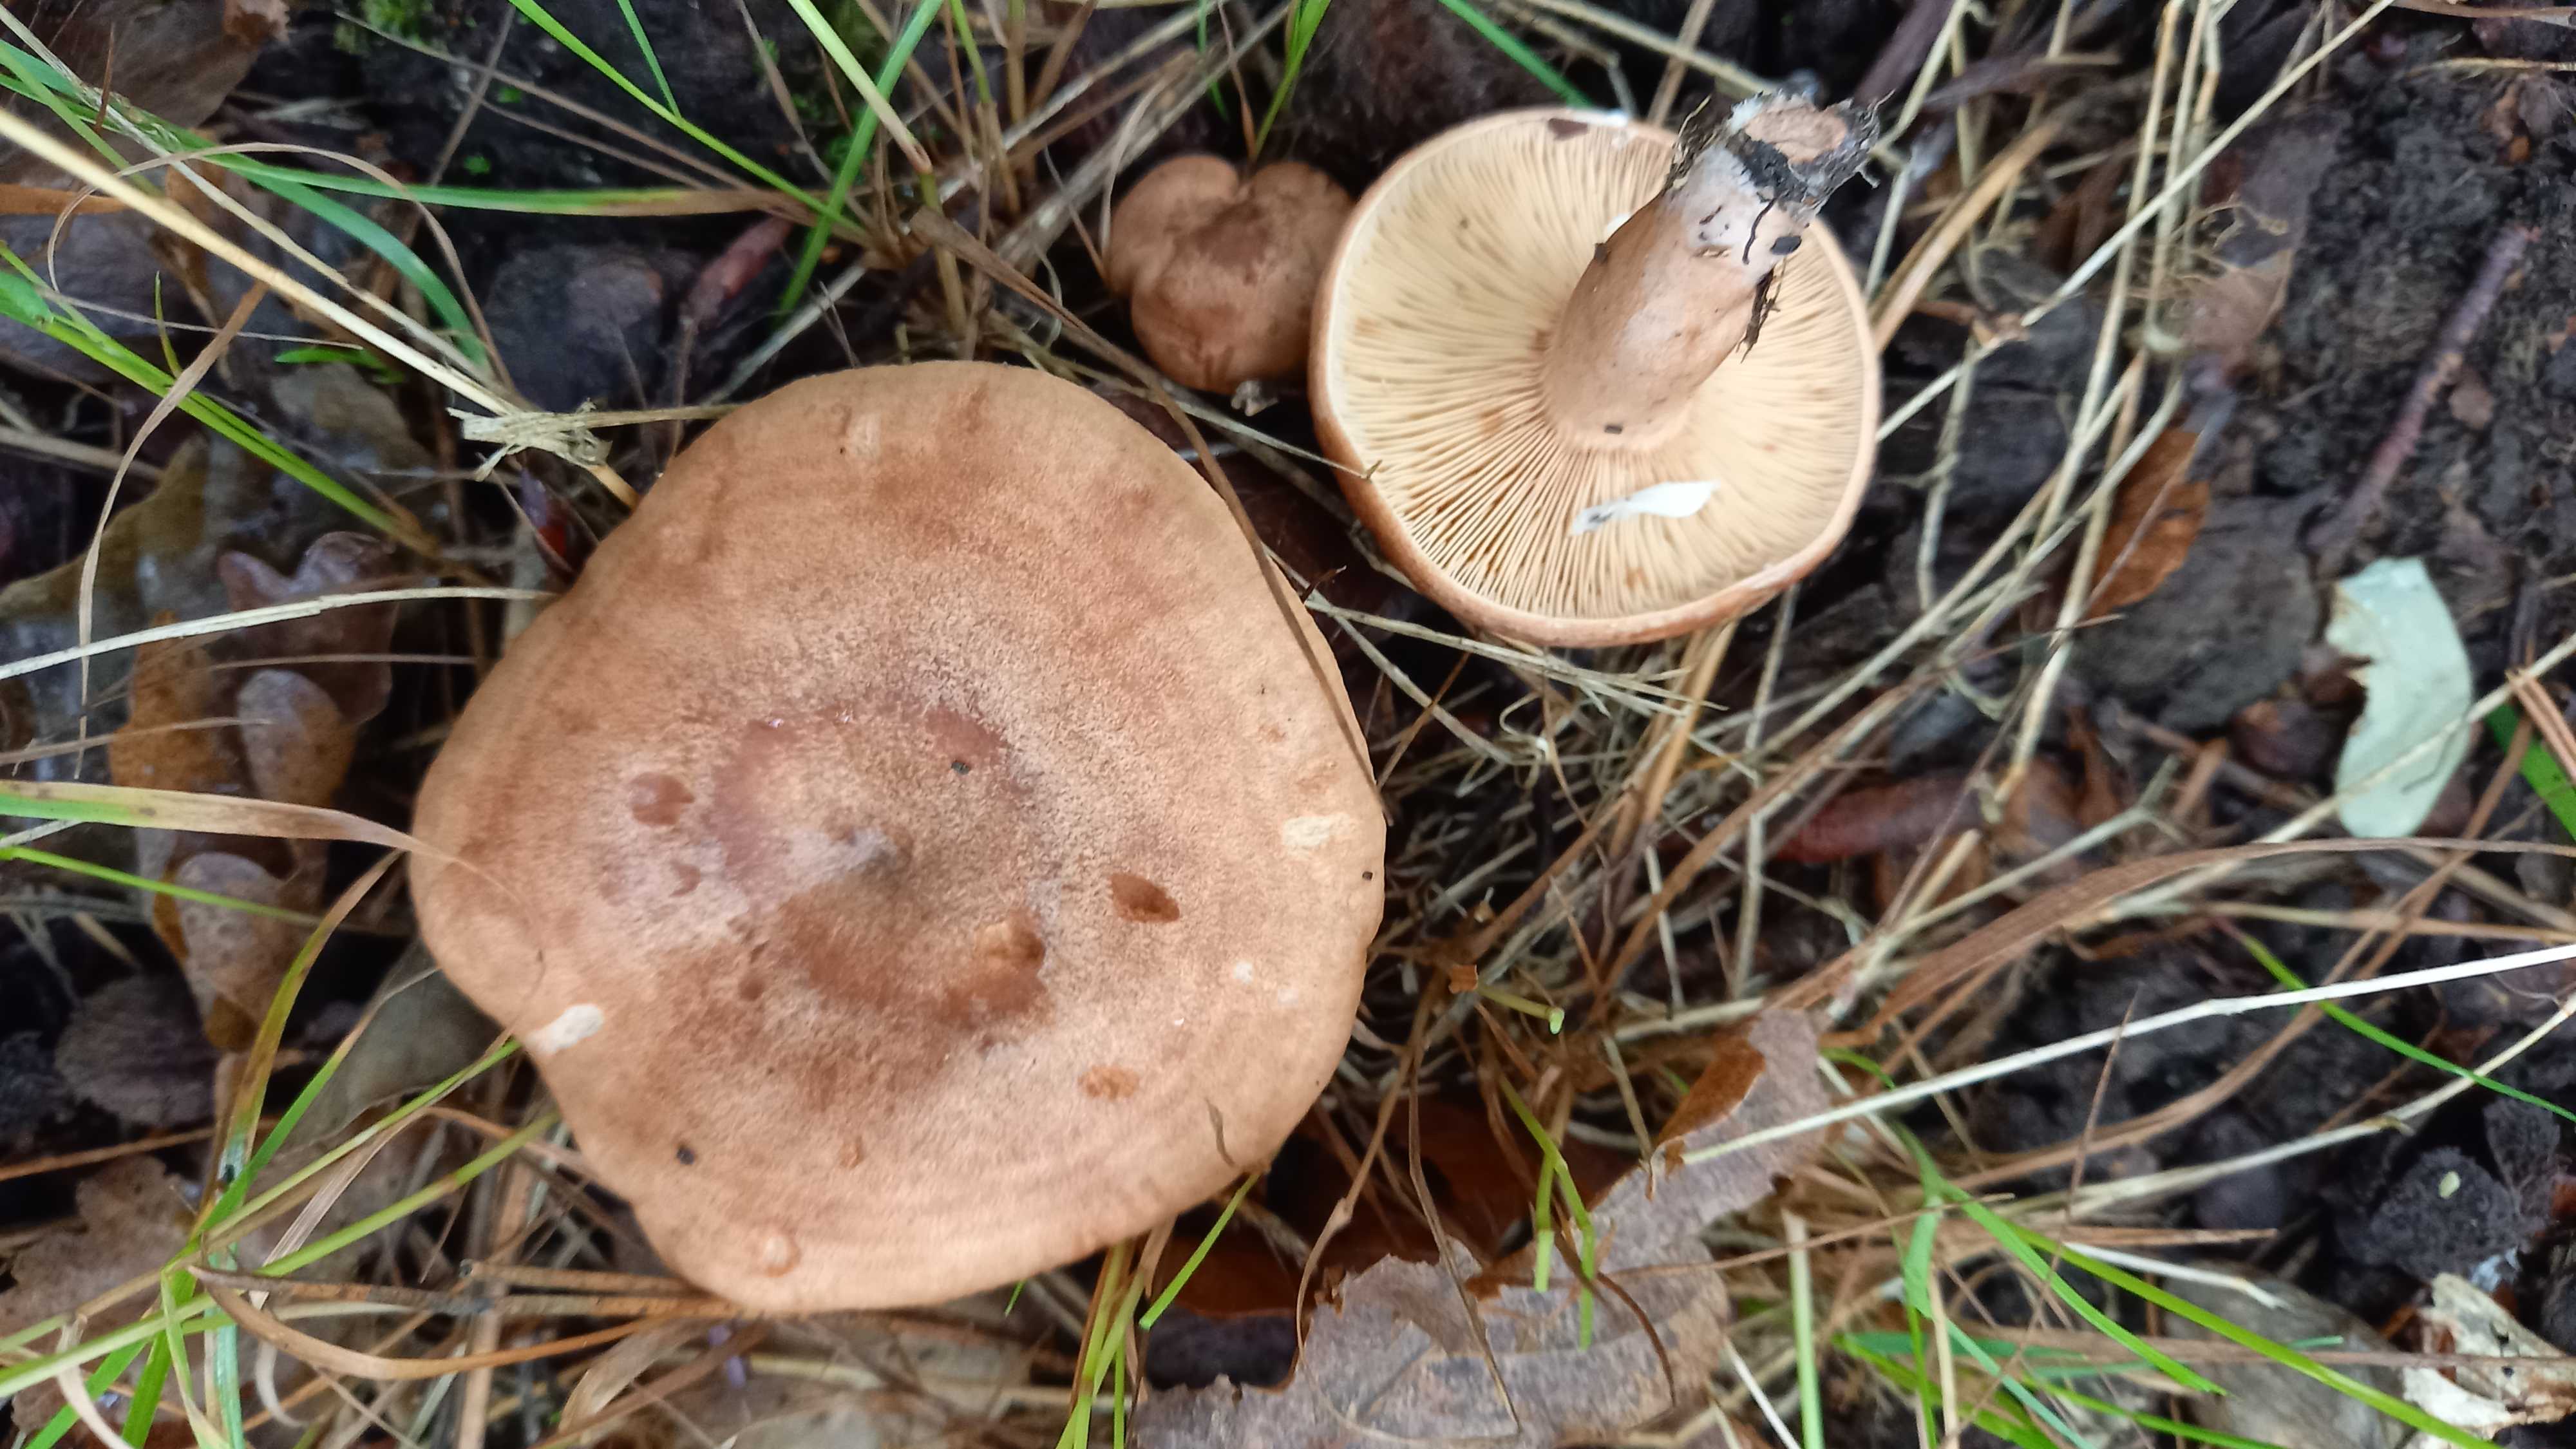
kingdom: Fungi
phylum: Basidiomycota
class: Agaricomycetes
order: Russulales
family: Russulaceae
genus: Lactarius
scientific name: Lactarius quietus
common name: ege-mælkehat
